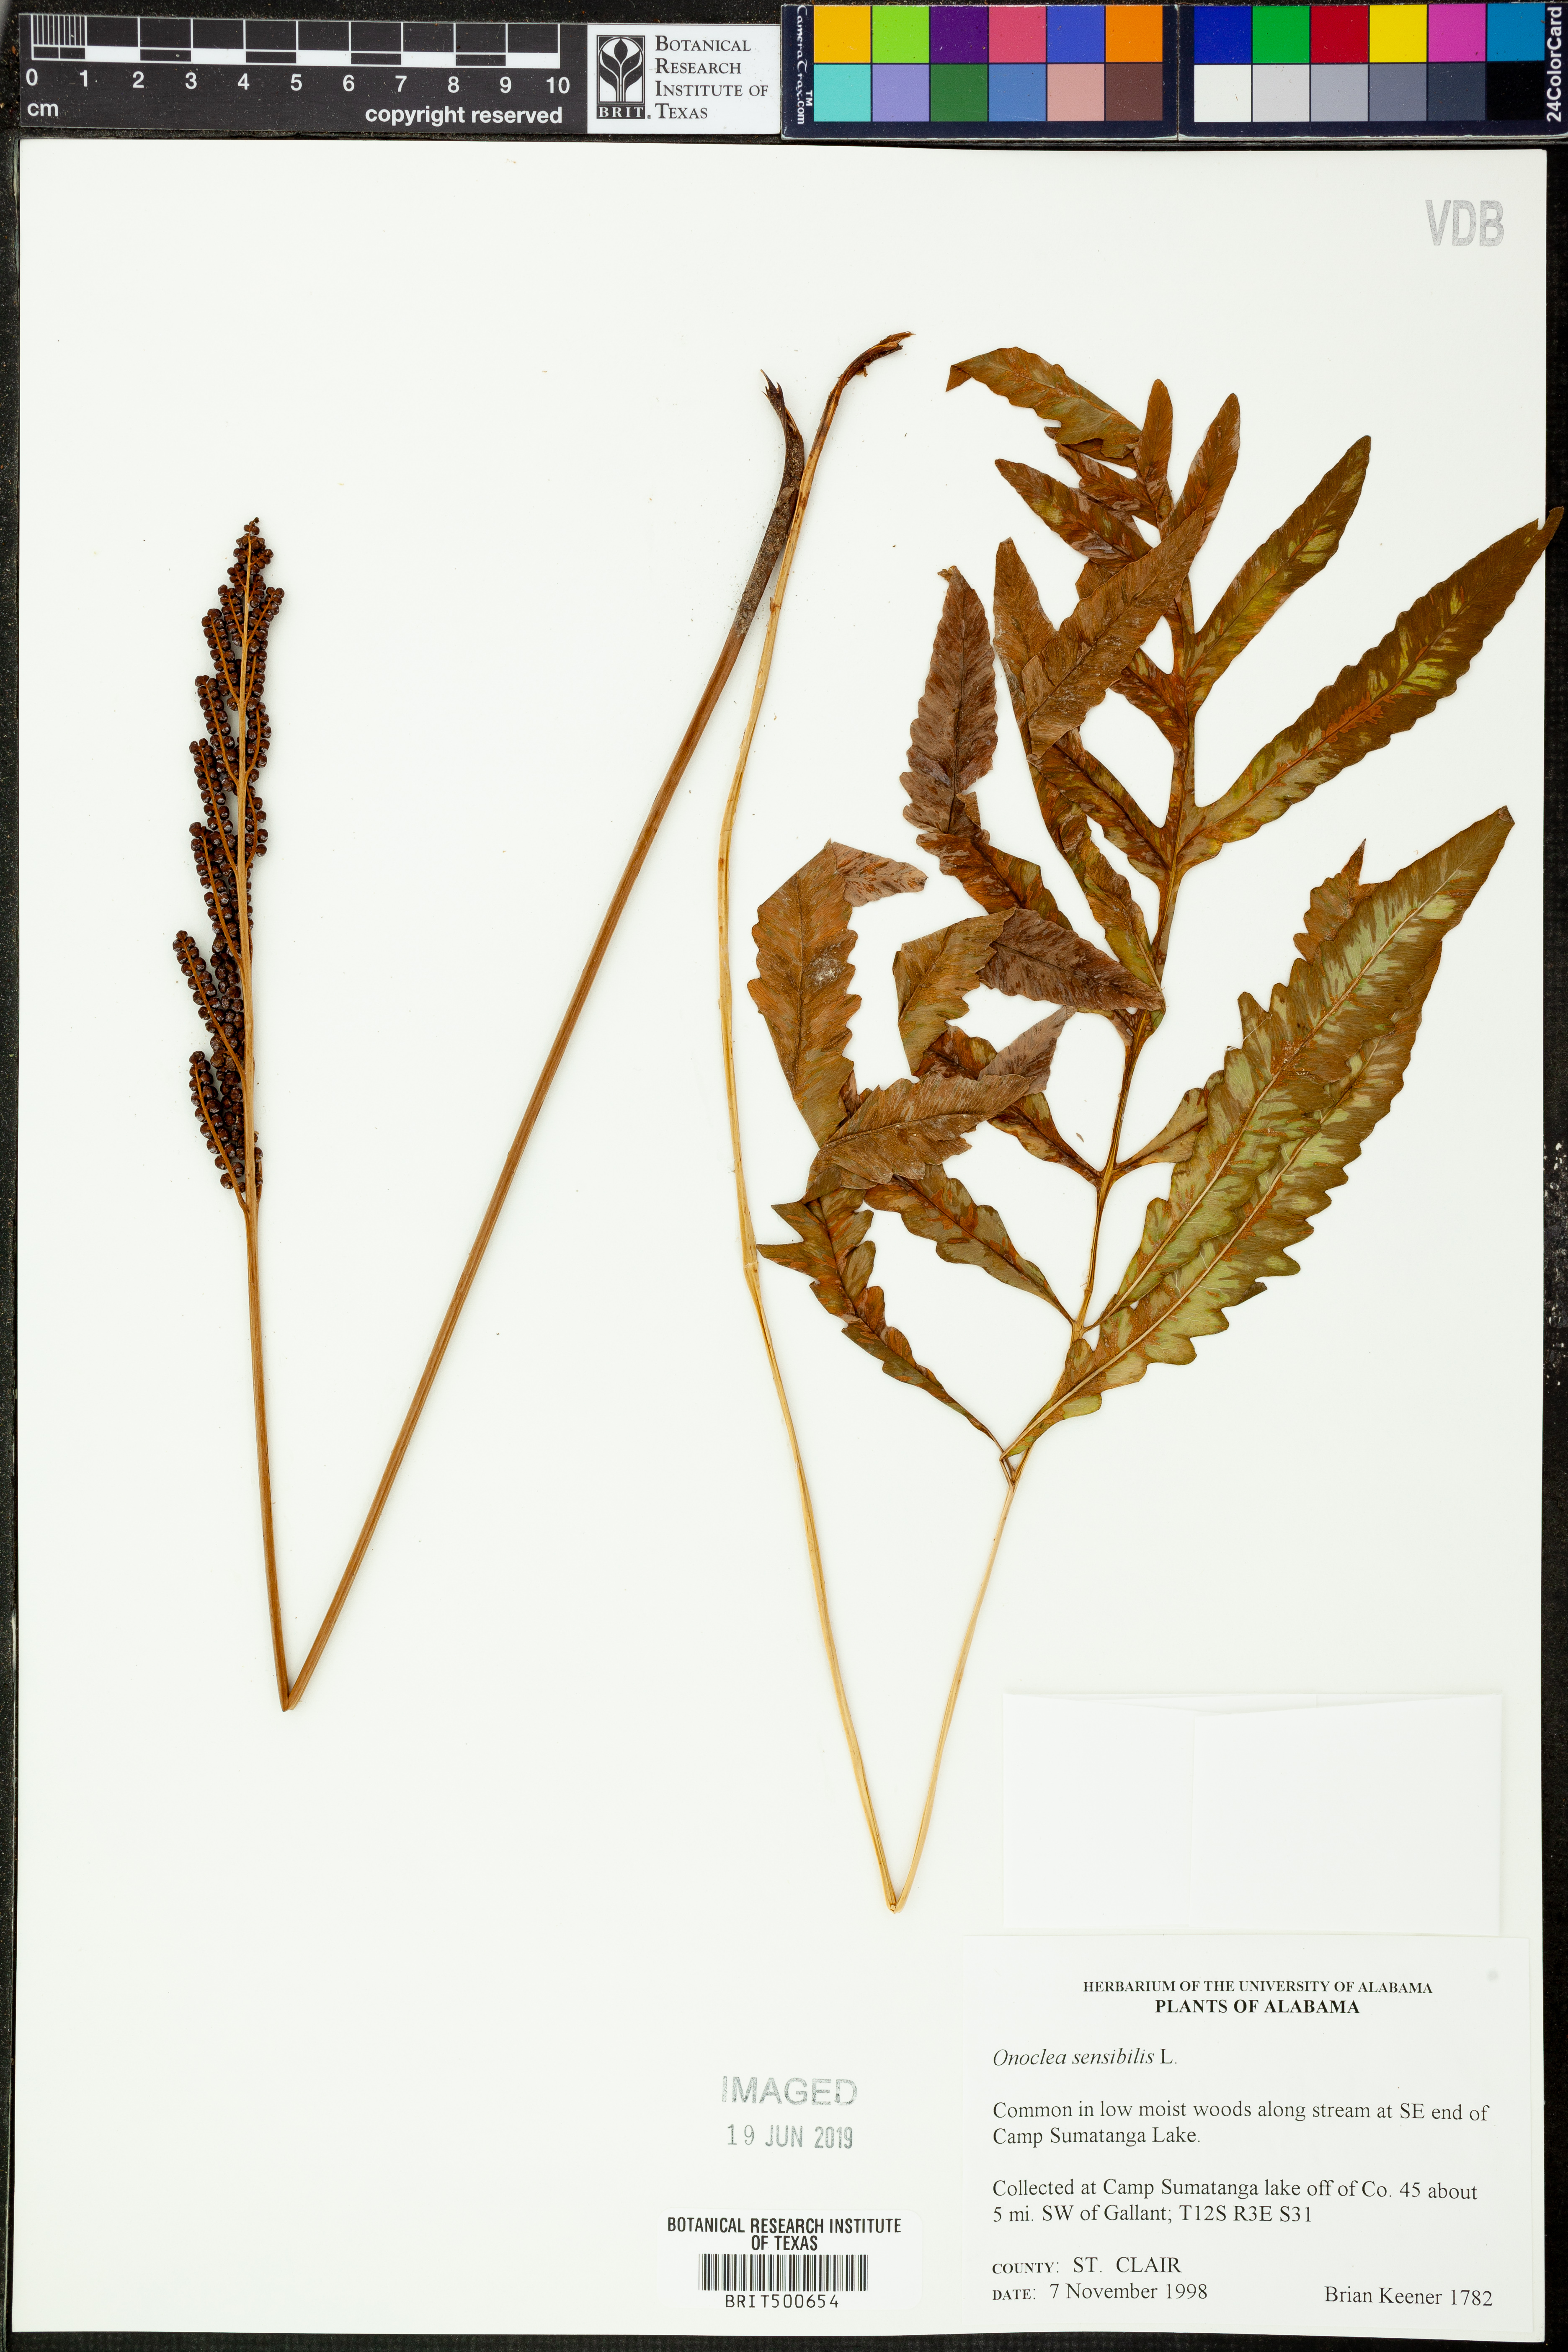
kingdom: Plantae
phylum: Tracheophyta
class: Polypodiopsida
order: Polypodiales
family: Onocleaceae
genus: Onoclea
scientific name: Onoclea sensibilis
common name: Sensitive fern
